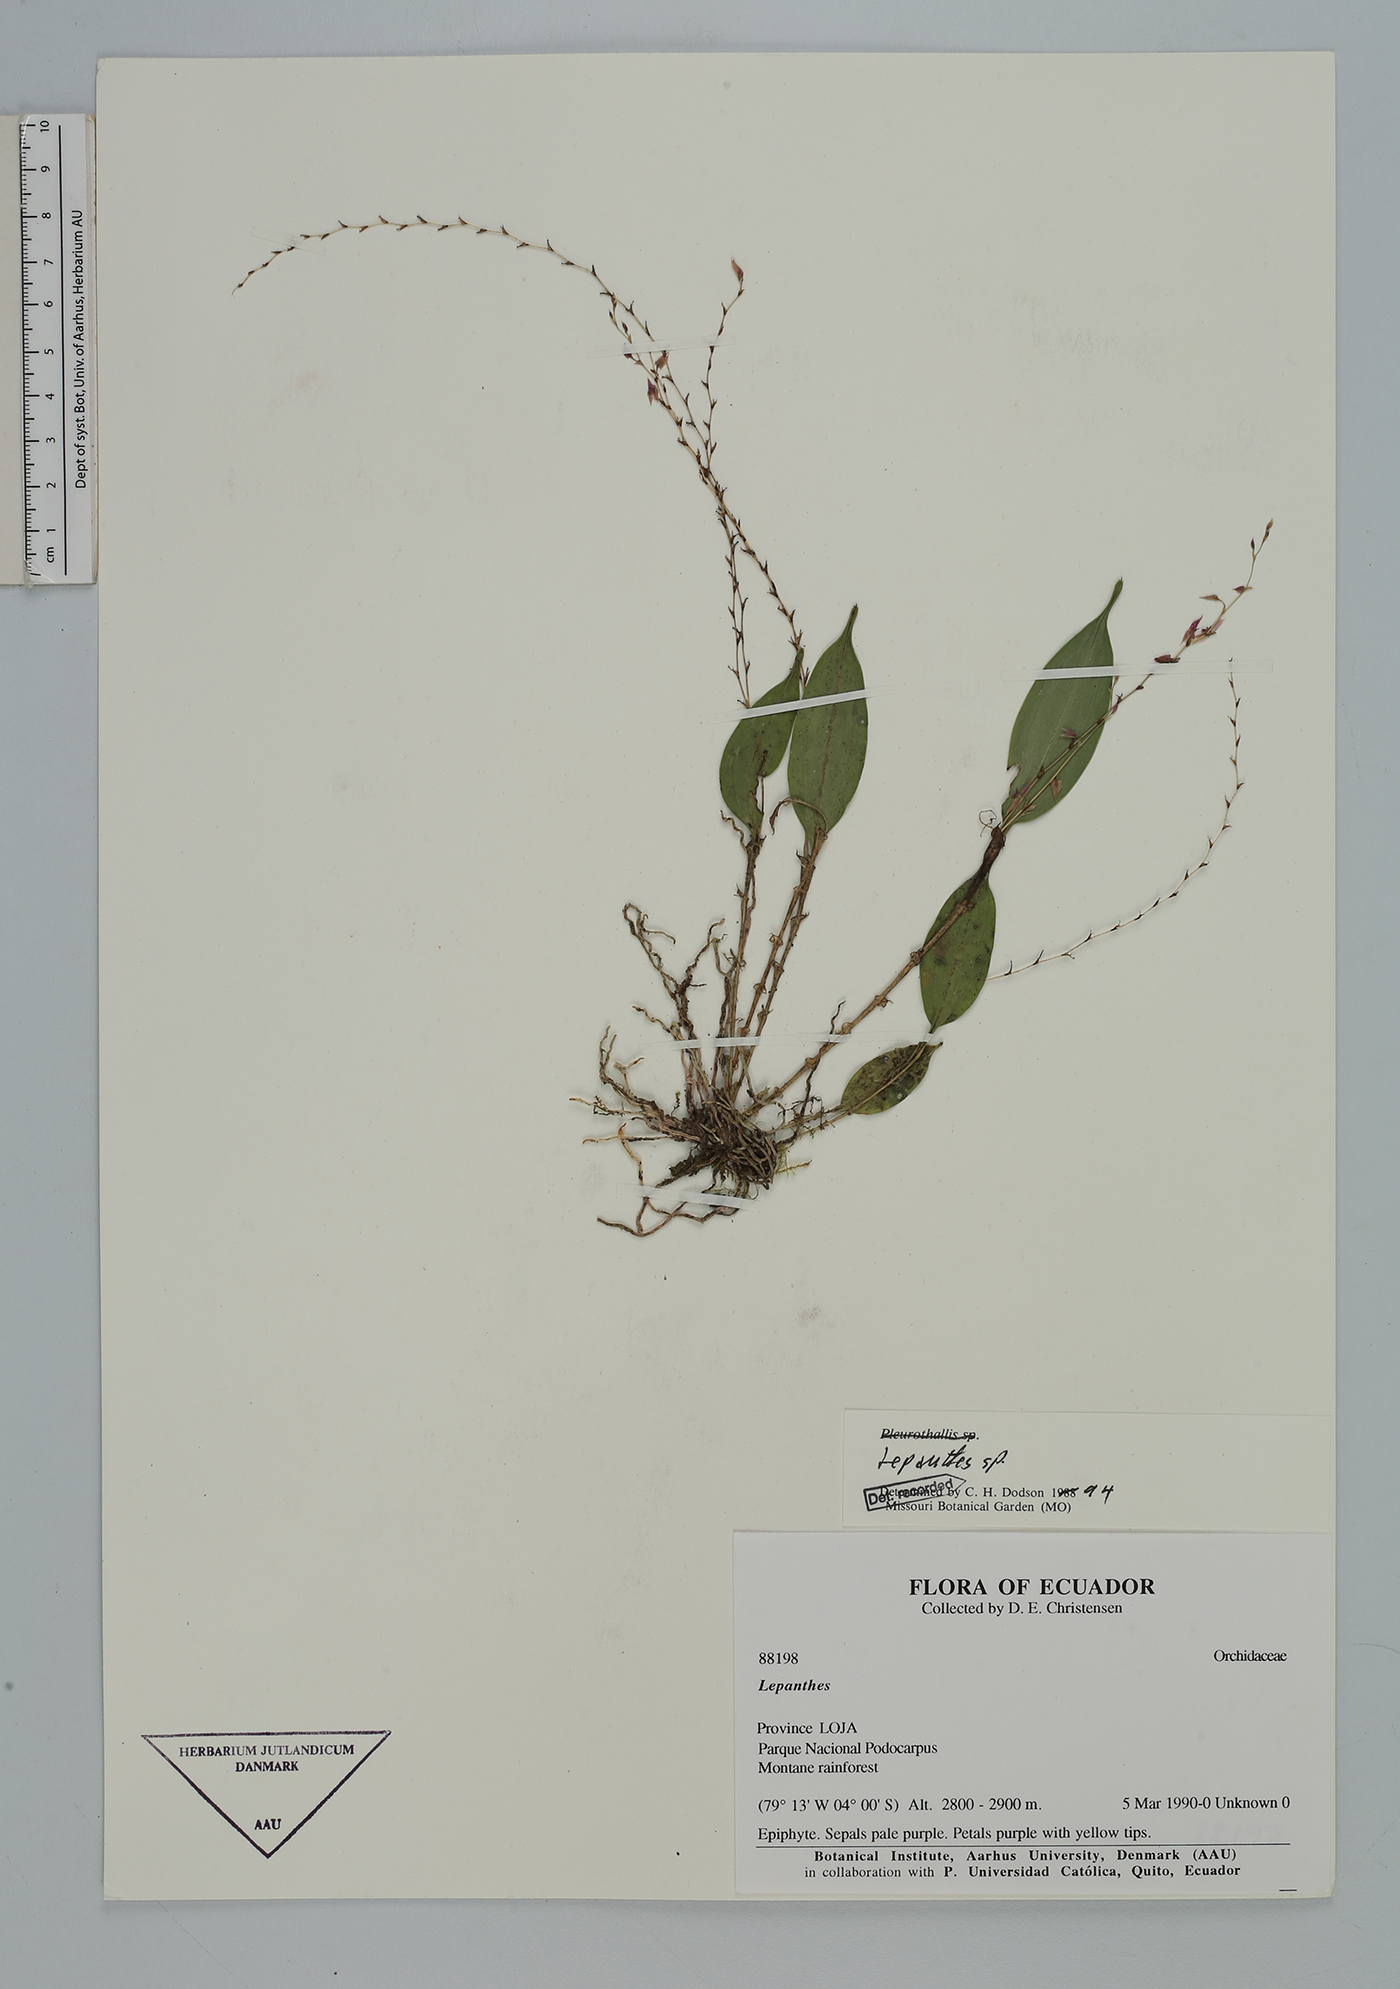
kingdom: Plantae
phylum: Tracheophyta
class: Liliopsida
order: Asparagales
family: Orchidaceae
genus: Lepanthes
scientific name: Lepanthes
